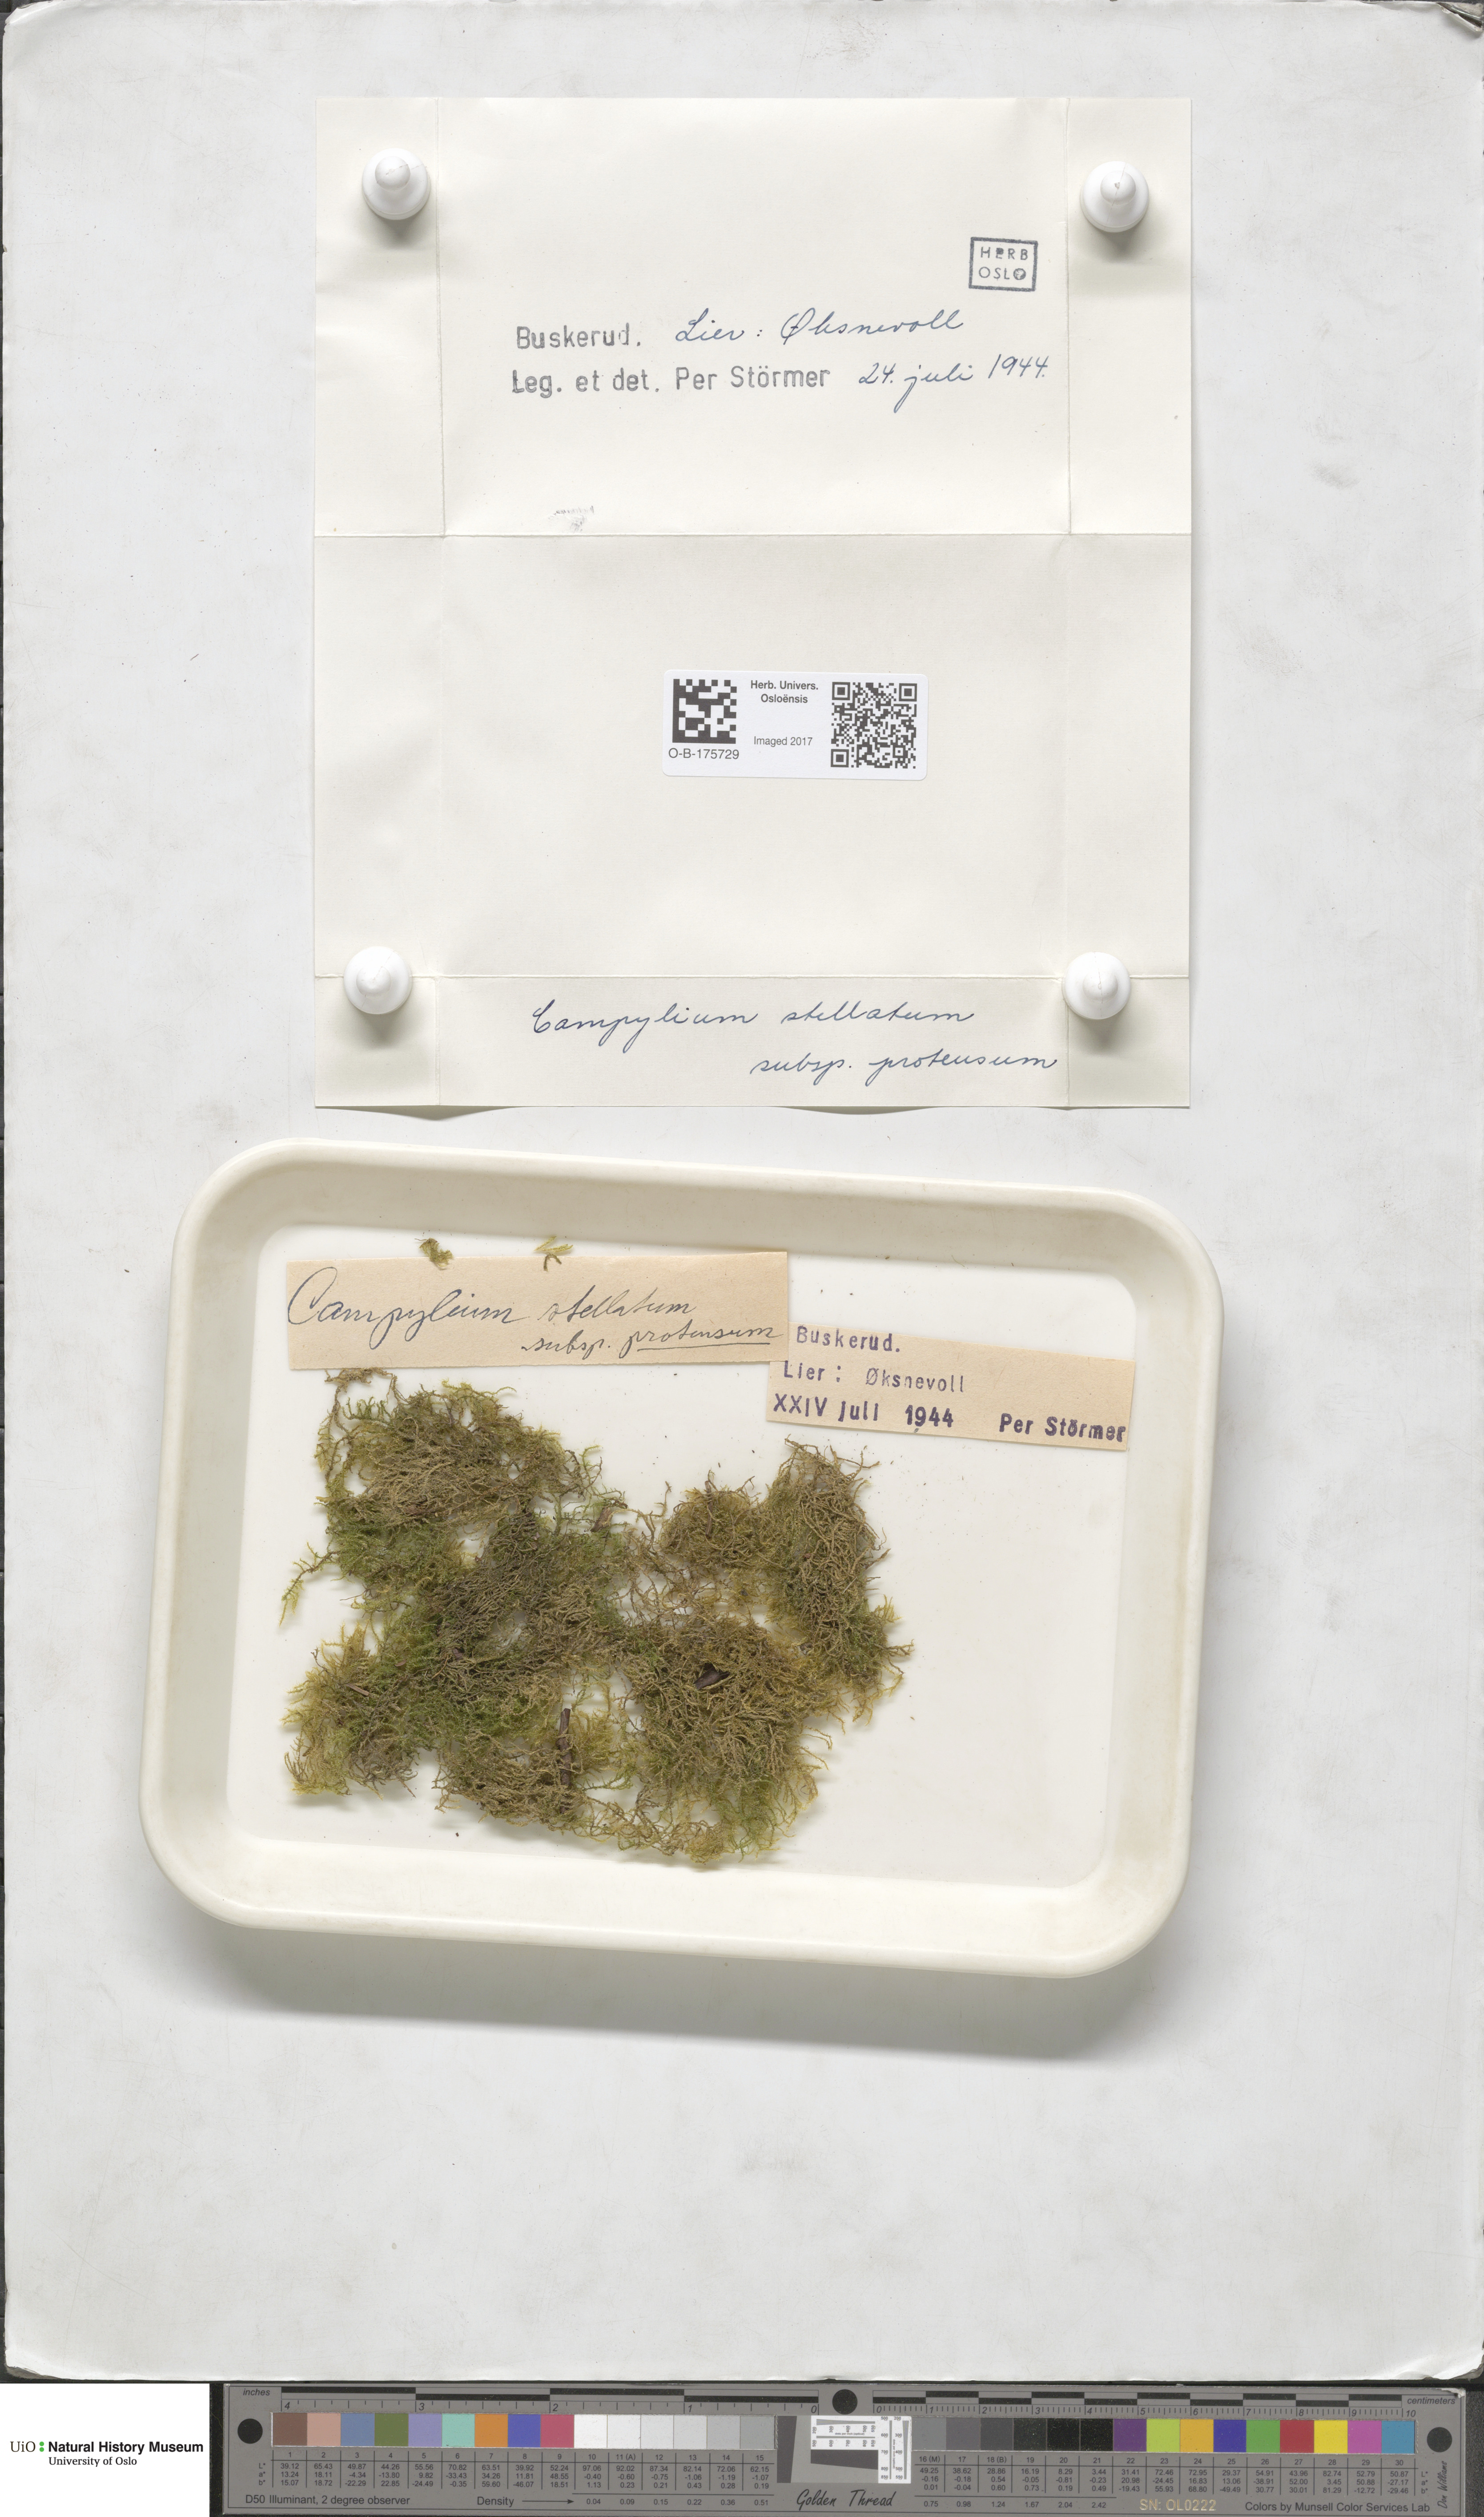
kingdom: Plantae
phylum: Bryophyta
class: Bryopsida
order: Hypnales
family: Amblystegiaceae
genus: Campylium
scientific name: Campylium protensum
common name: Dull starry fen moss
